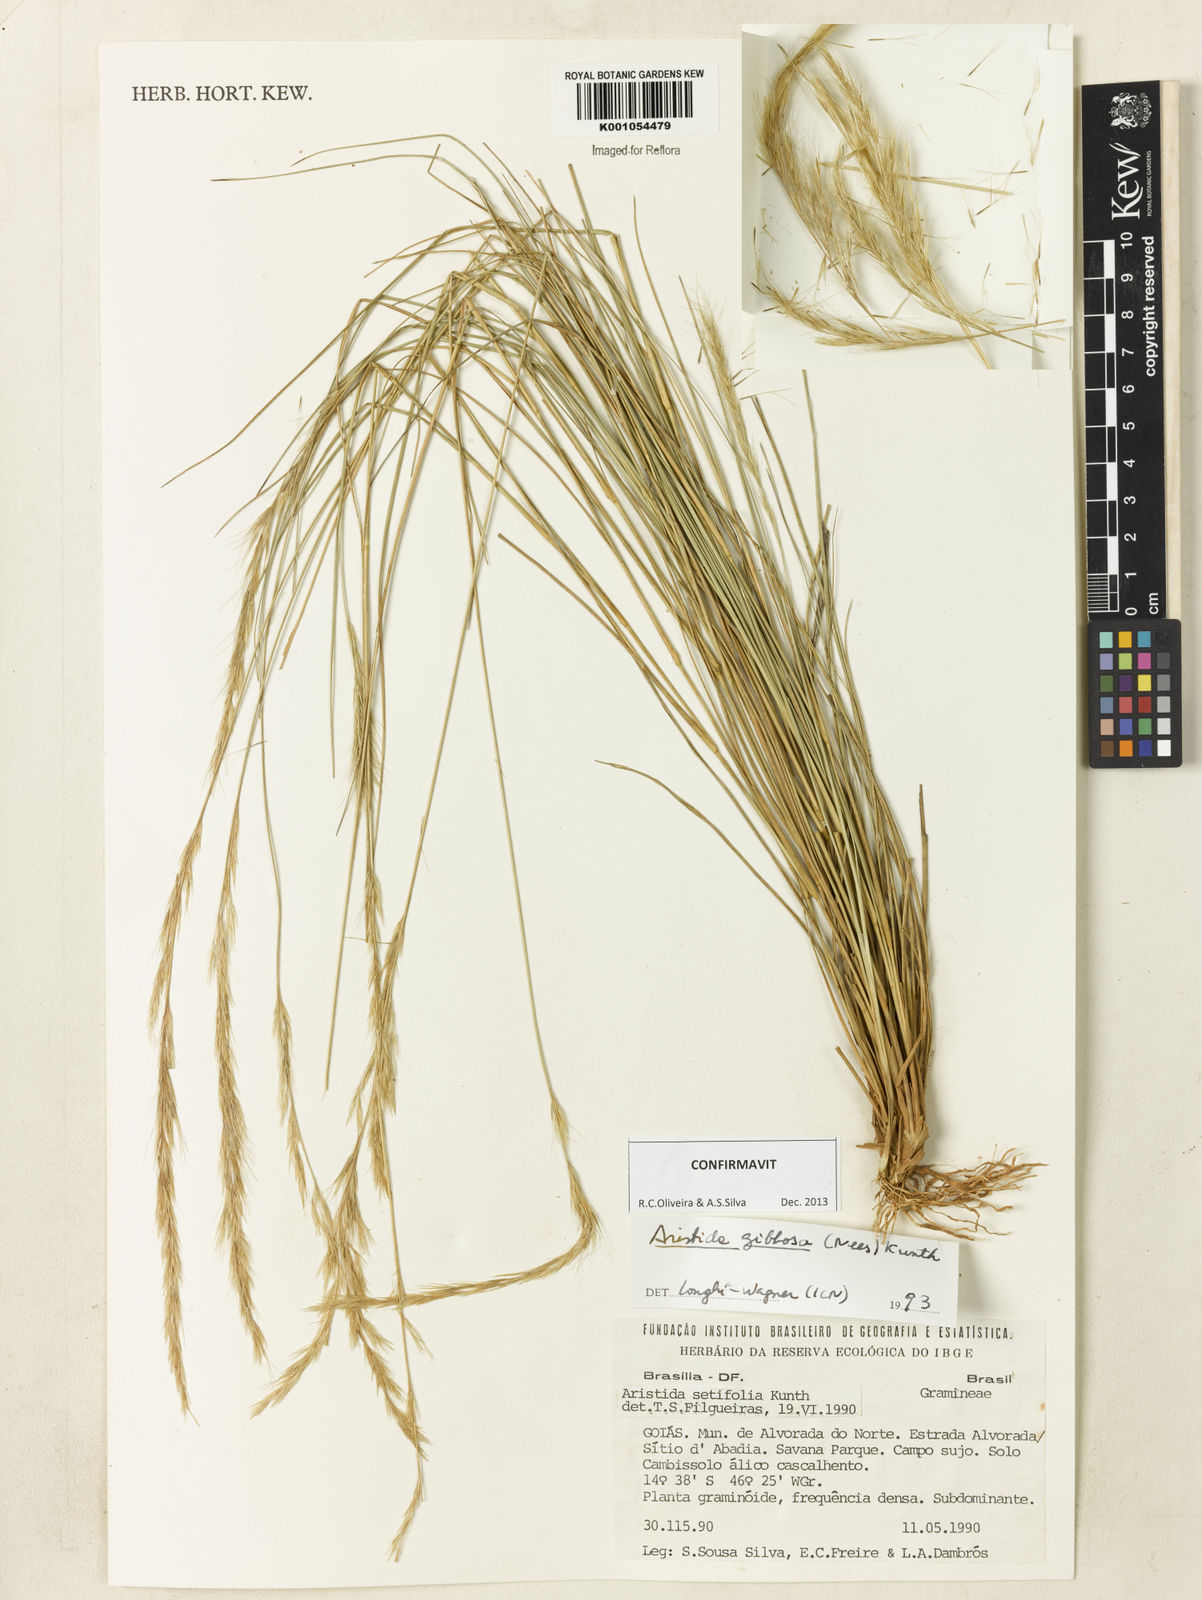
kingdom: Plantae
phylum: Tracheophyta
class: Liliopsida
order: Poales
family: Poaceae
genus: Aristida
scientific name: Aristida gibbosa
